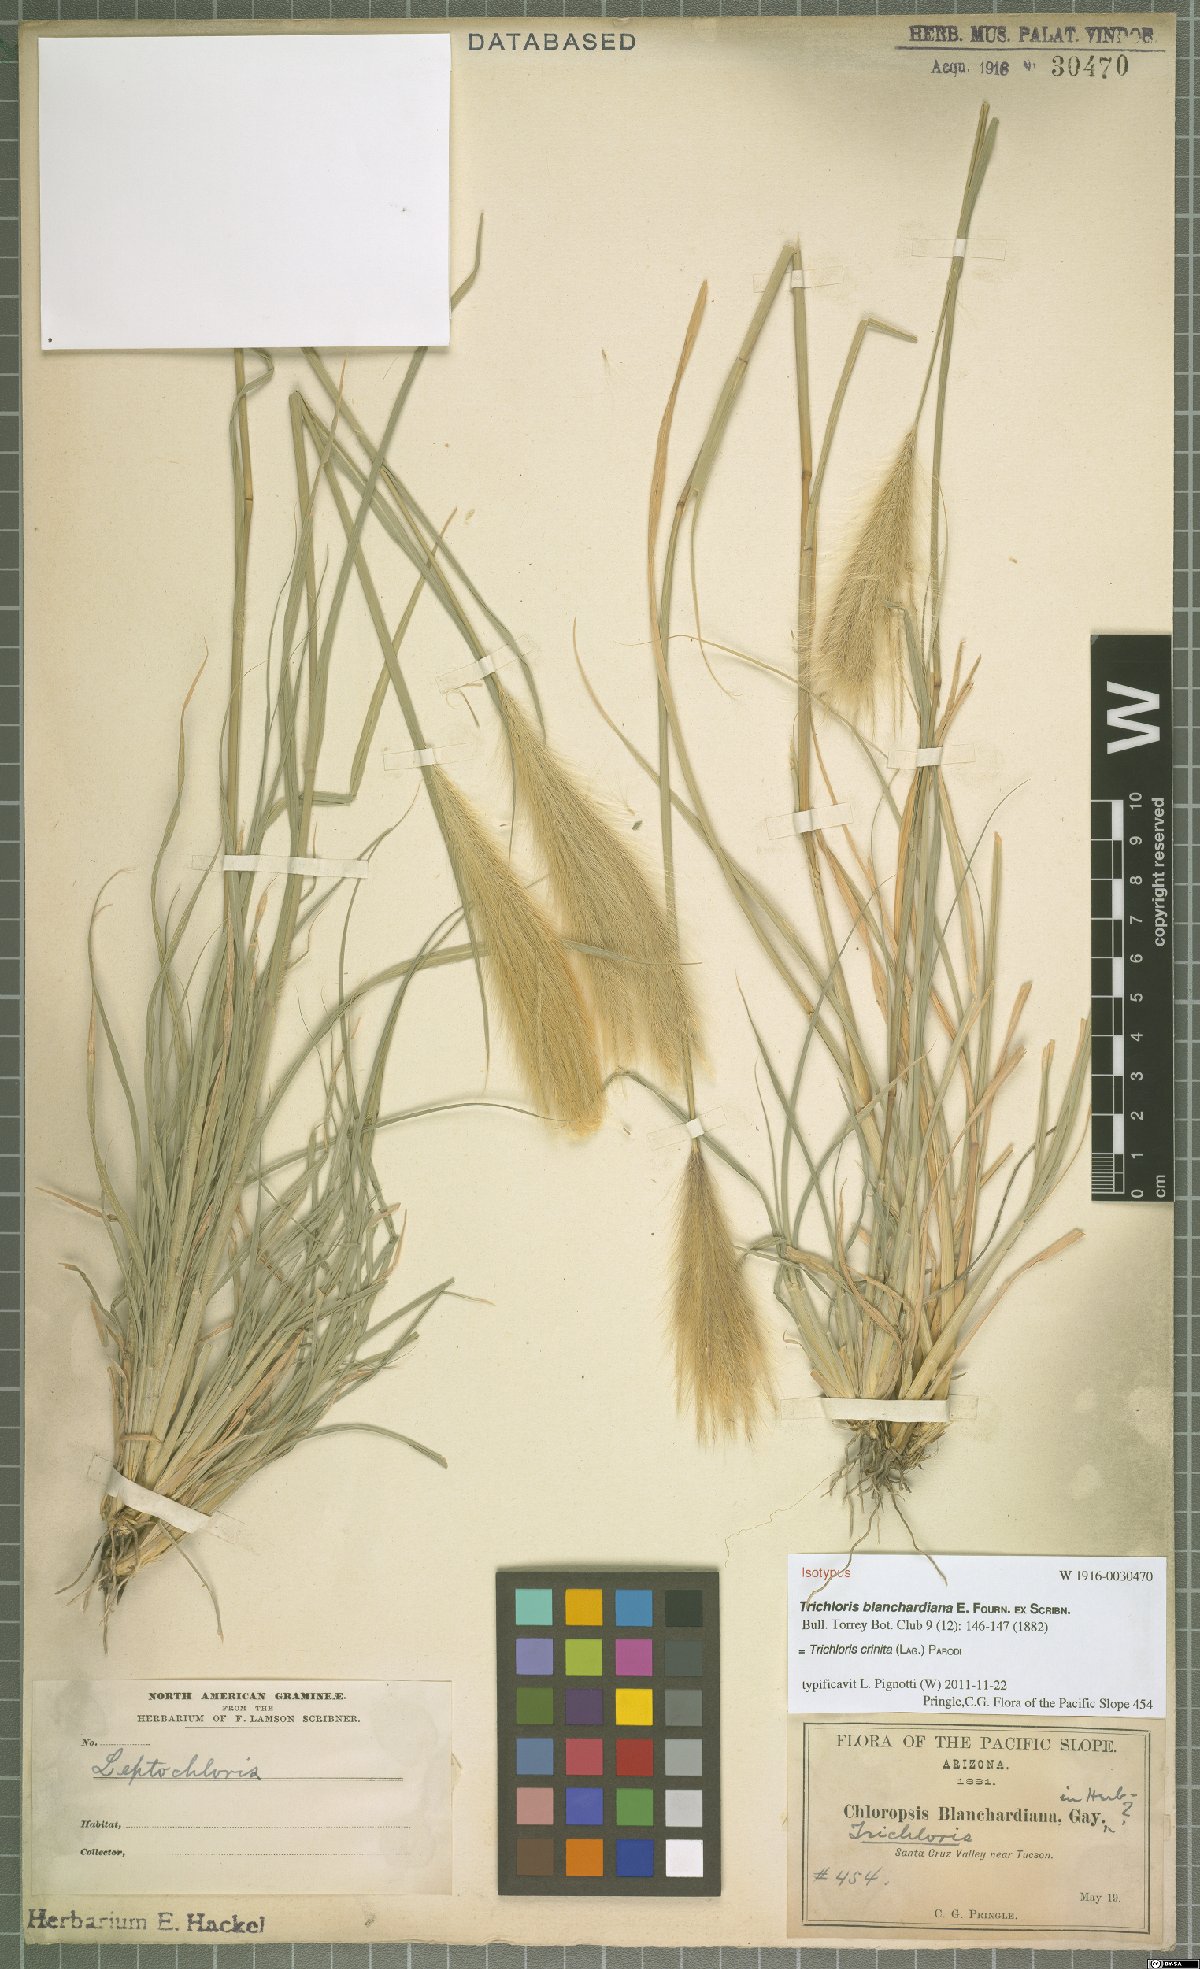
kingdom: Plantae
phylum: Tracheophyta
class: Liliopsida
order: Poales
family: Poaceae
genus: Leptochloa
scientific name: Leptochloa crinita
